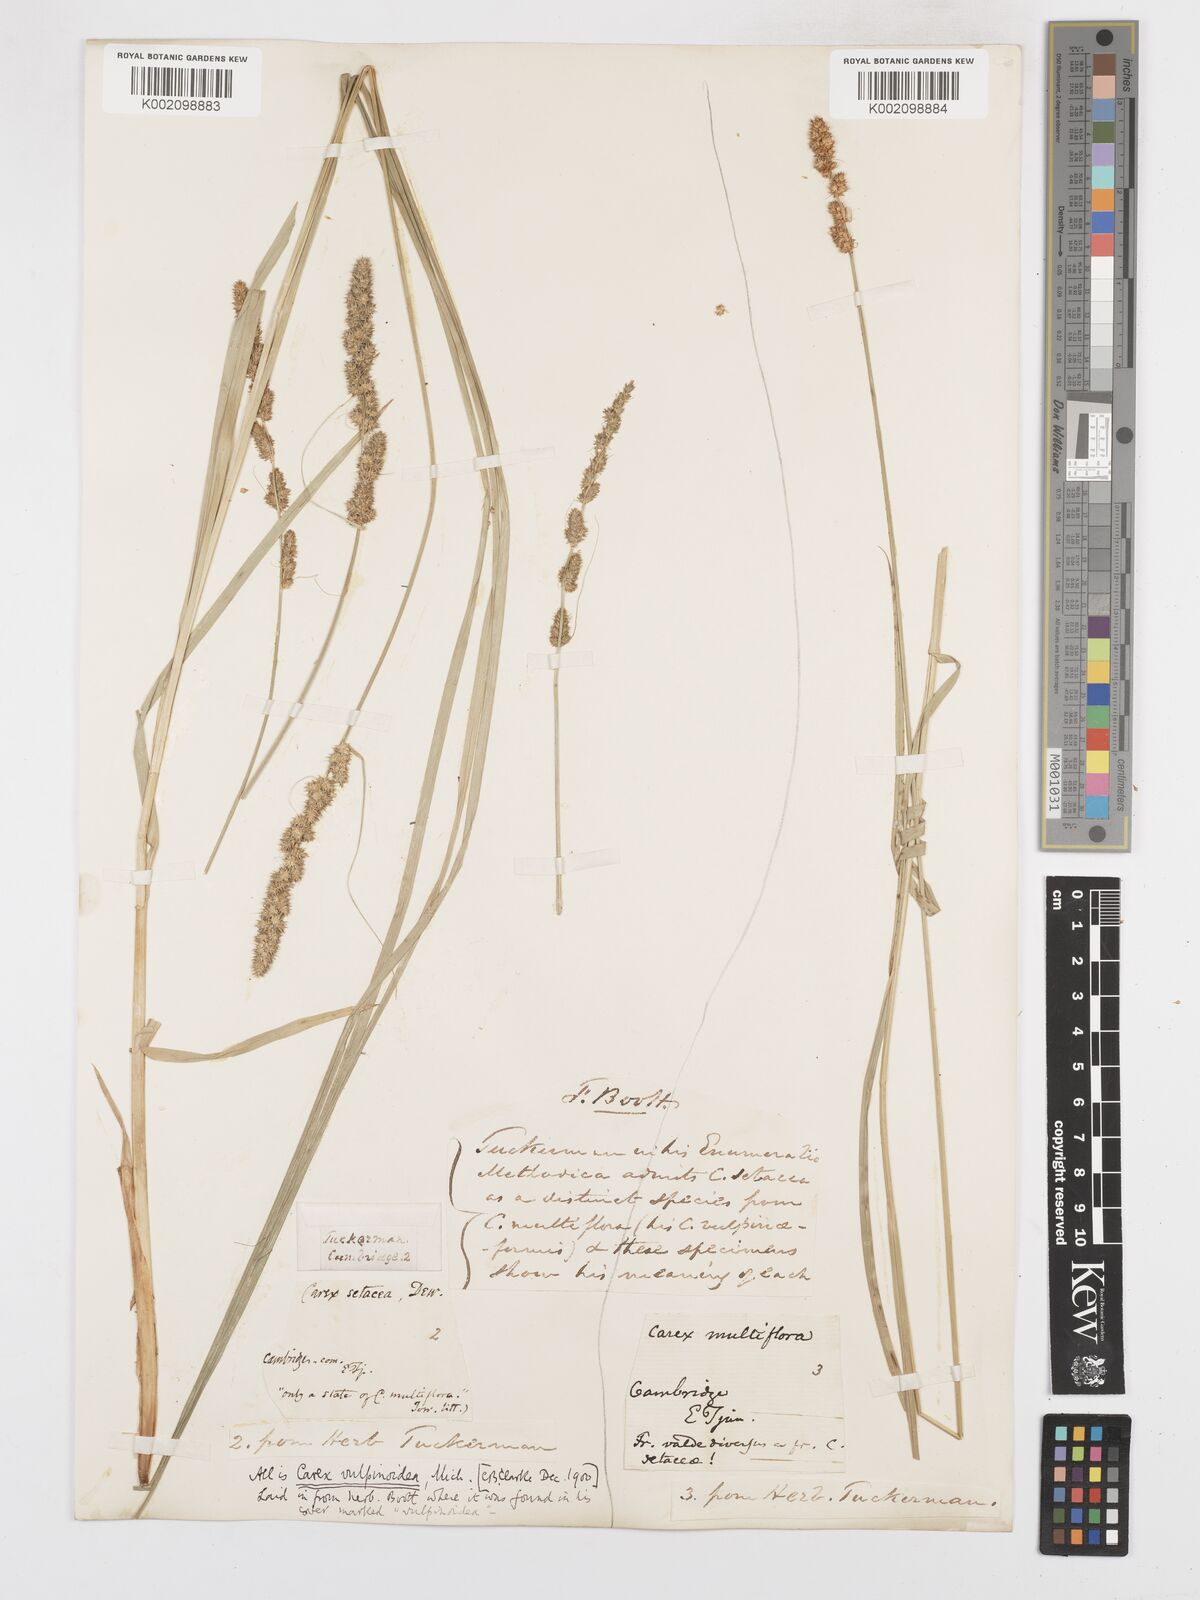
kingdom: Plantae
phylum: Tracheophyta
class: Liliopsida
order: Poales
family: Cyperaceae
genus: Carex
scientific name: Carex vulpinoidea
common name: American fox-sedge
